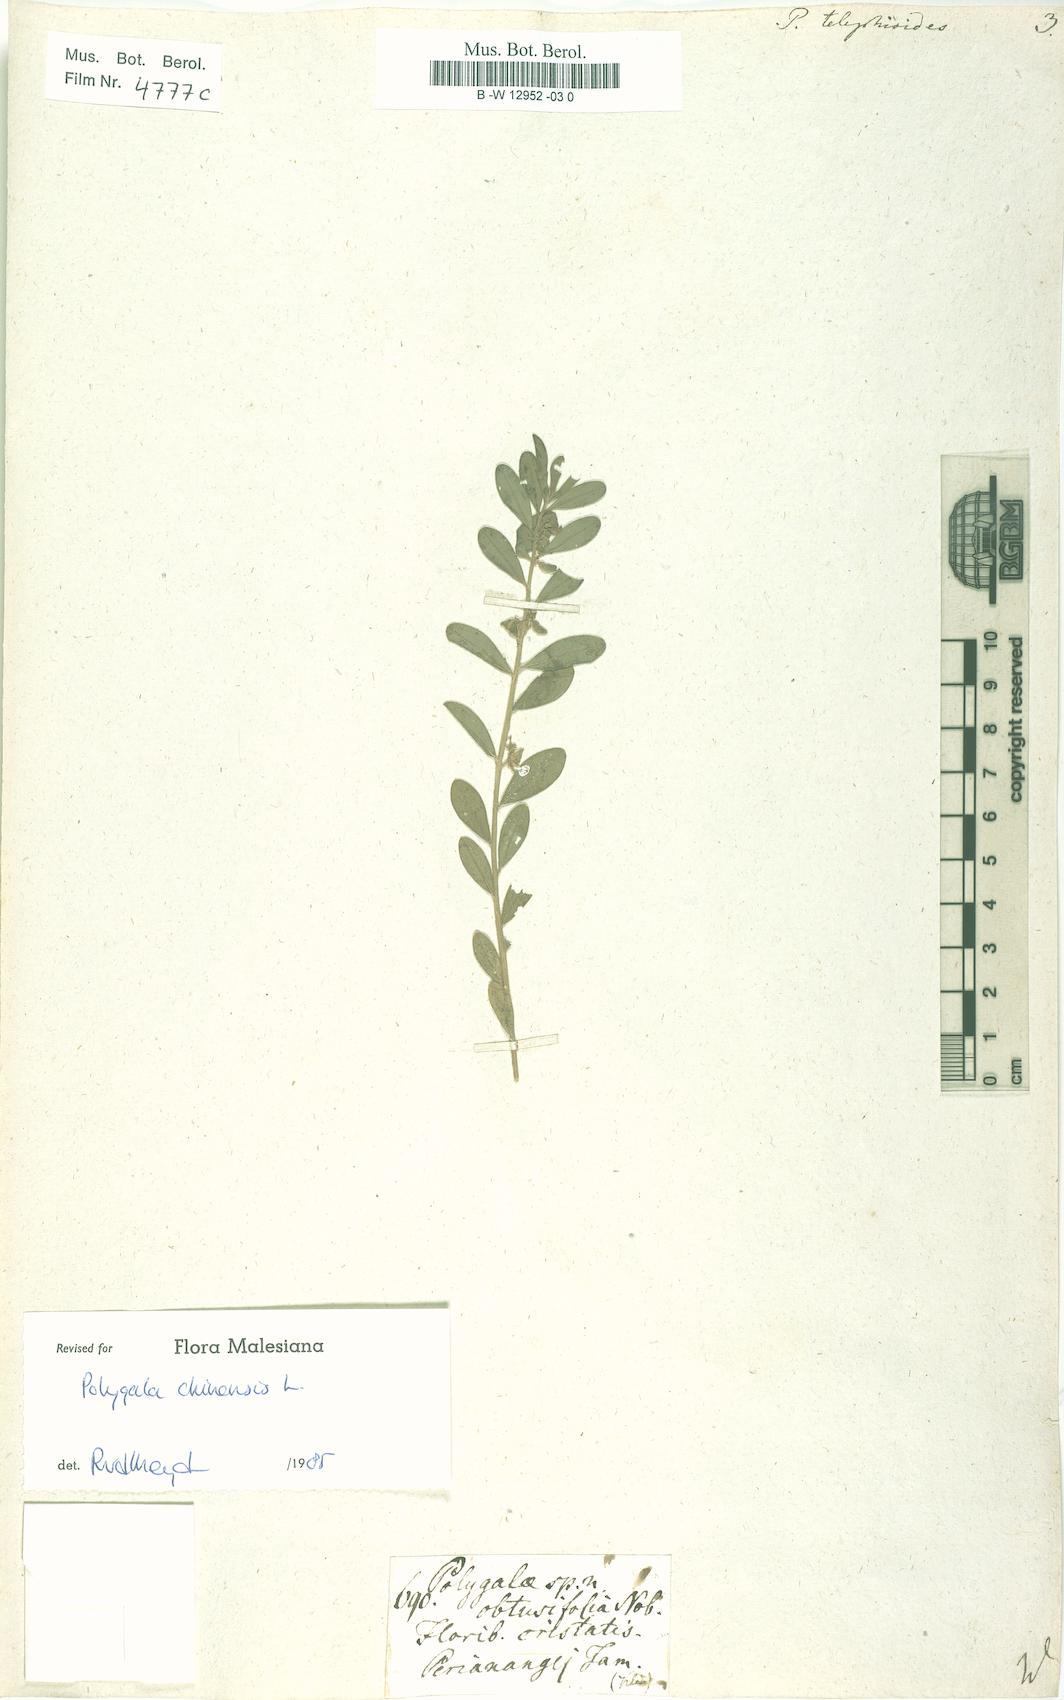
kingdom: Plantae
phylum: Tracheophyta
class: Magnoliopsida
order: Fabales
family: Polygalaceae
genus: Polygala
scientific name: Polygala telephioides
